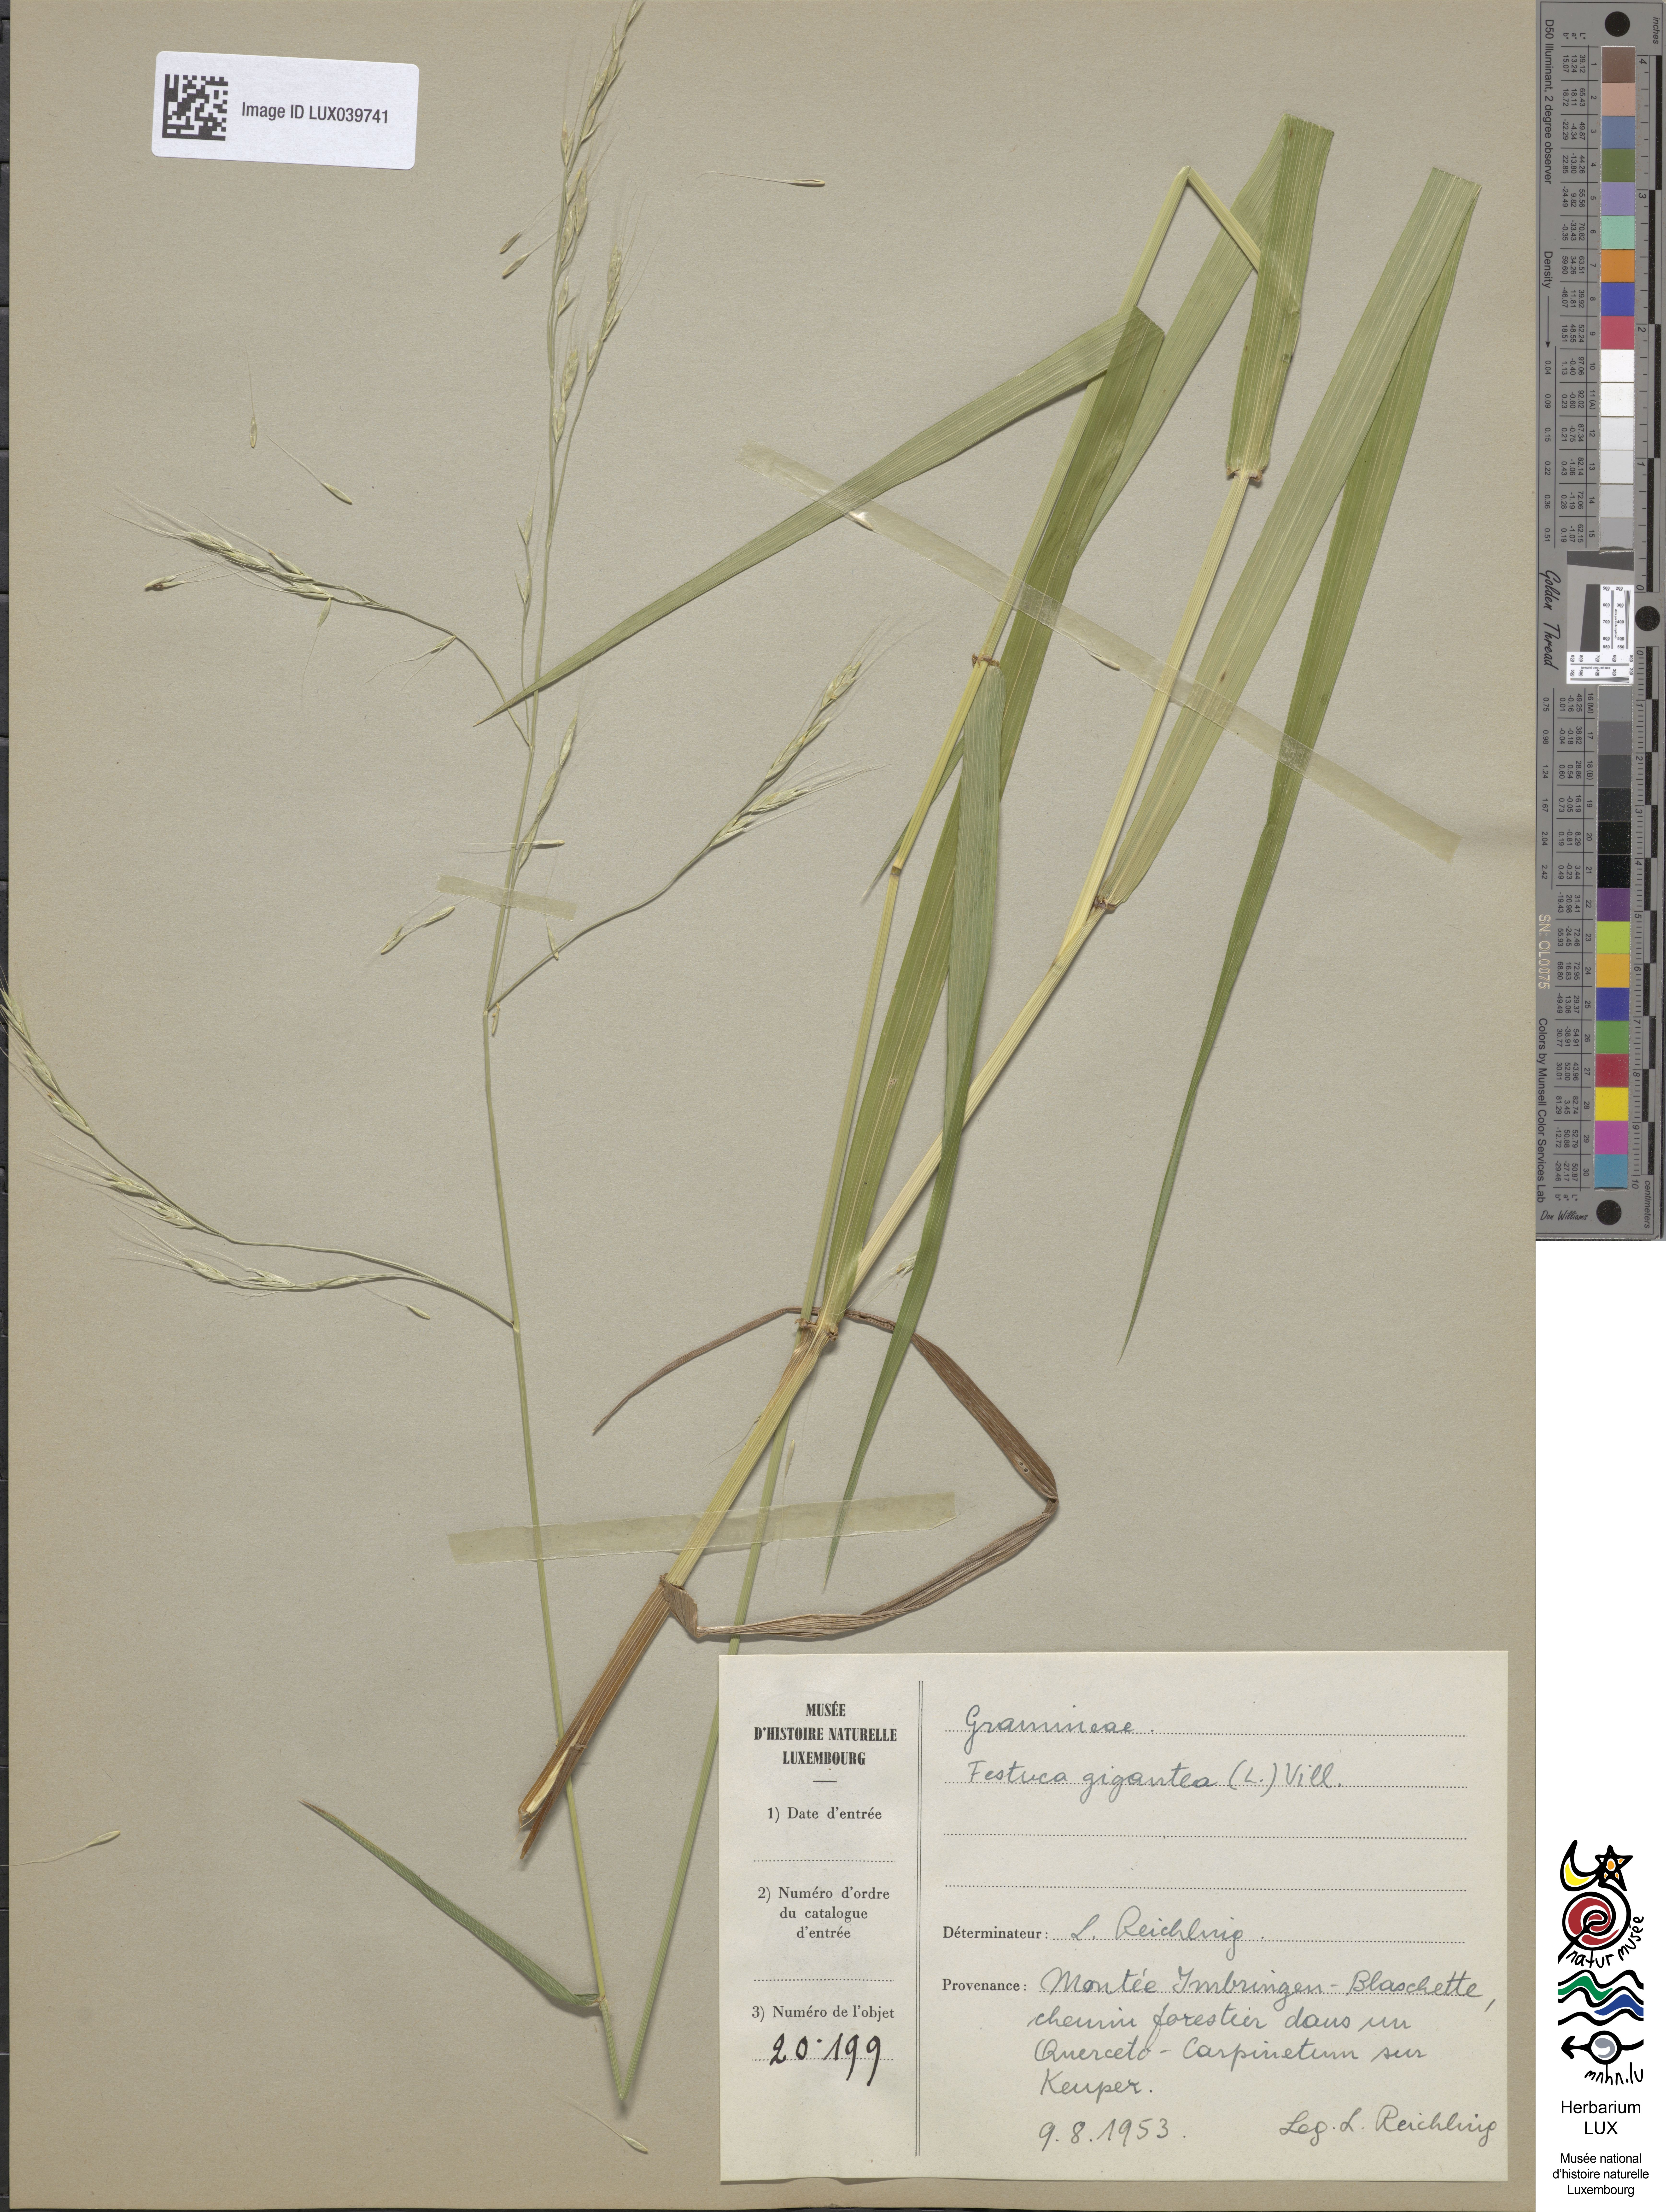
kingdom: Plantae
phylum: Tracheophyta
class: Liliopsida
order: Poales
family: Poaceae
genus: Lolium
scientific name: Lolium giganteum
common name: Giant fescue
